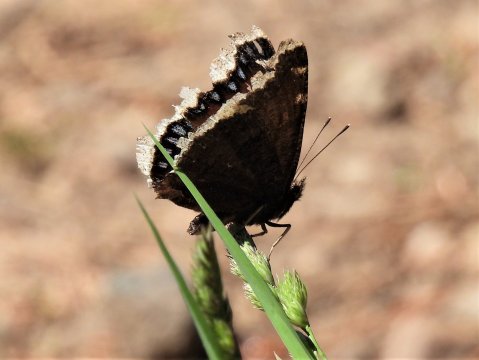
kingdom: Animalia
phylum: Arthropoda
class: Insecta
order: Lepidoptera
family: Nymphalidae
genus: Nymphalis
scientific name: Nymphalis antiopa
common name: Mourning Cloak
